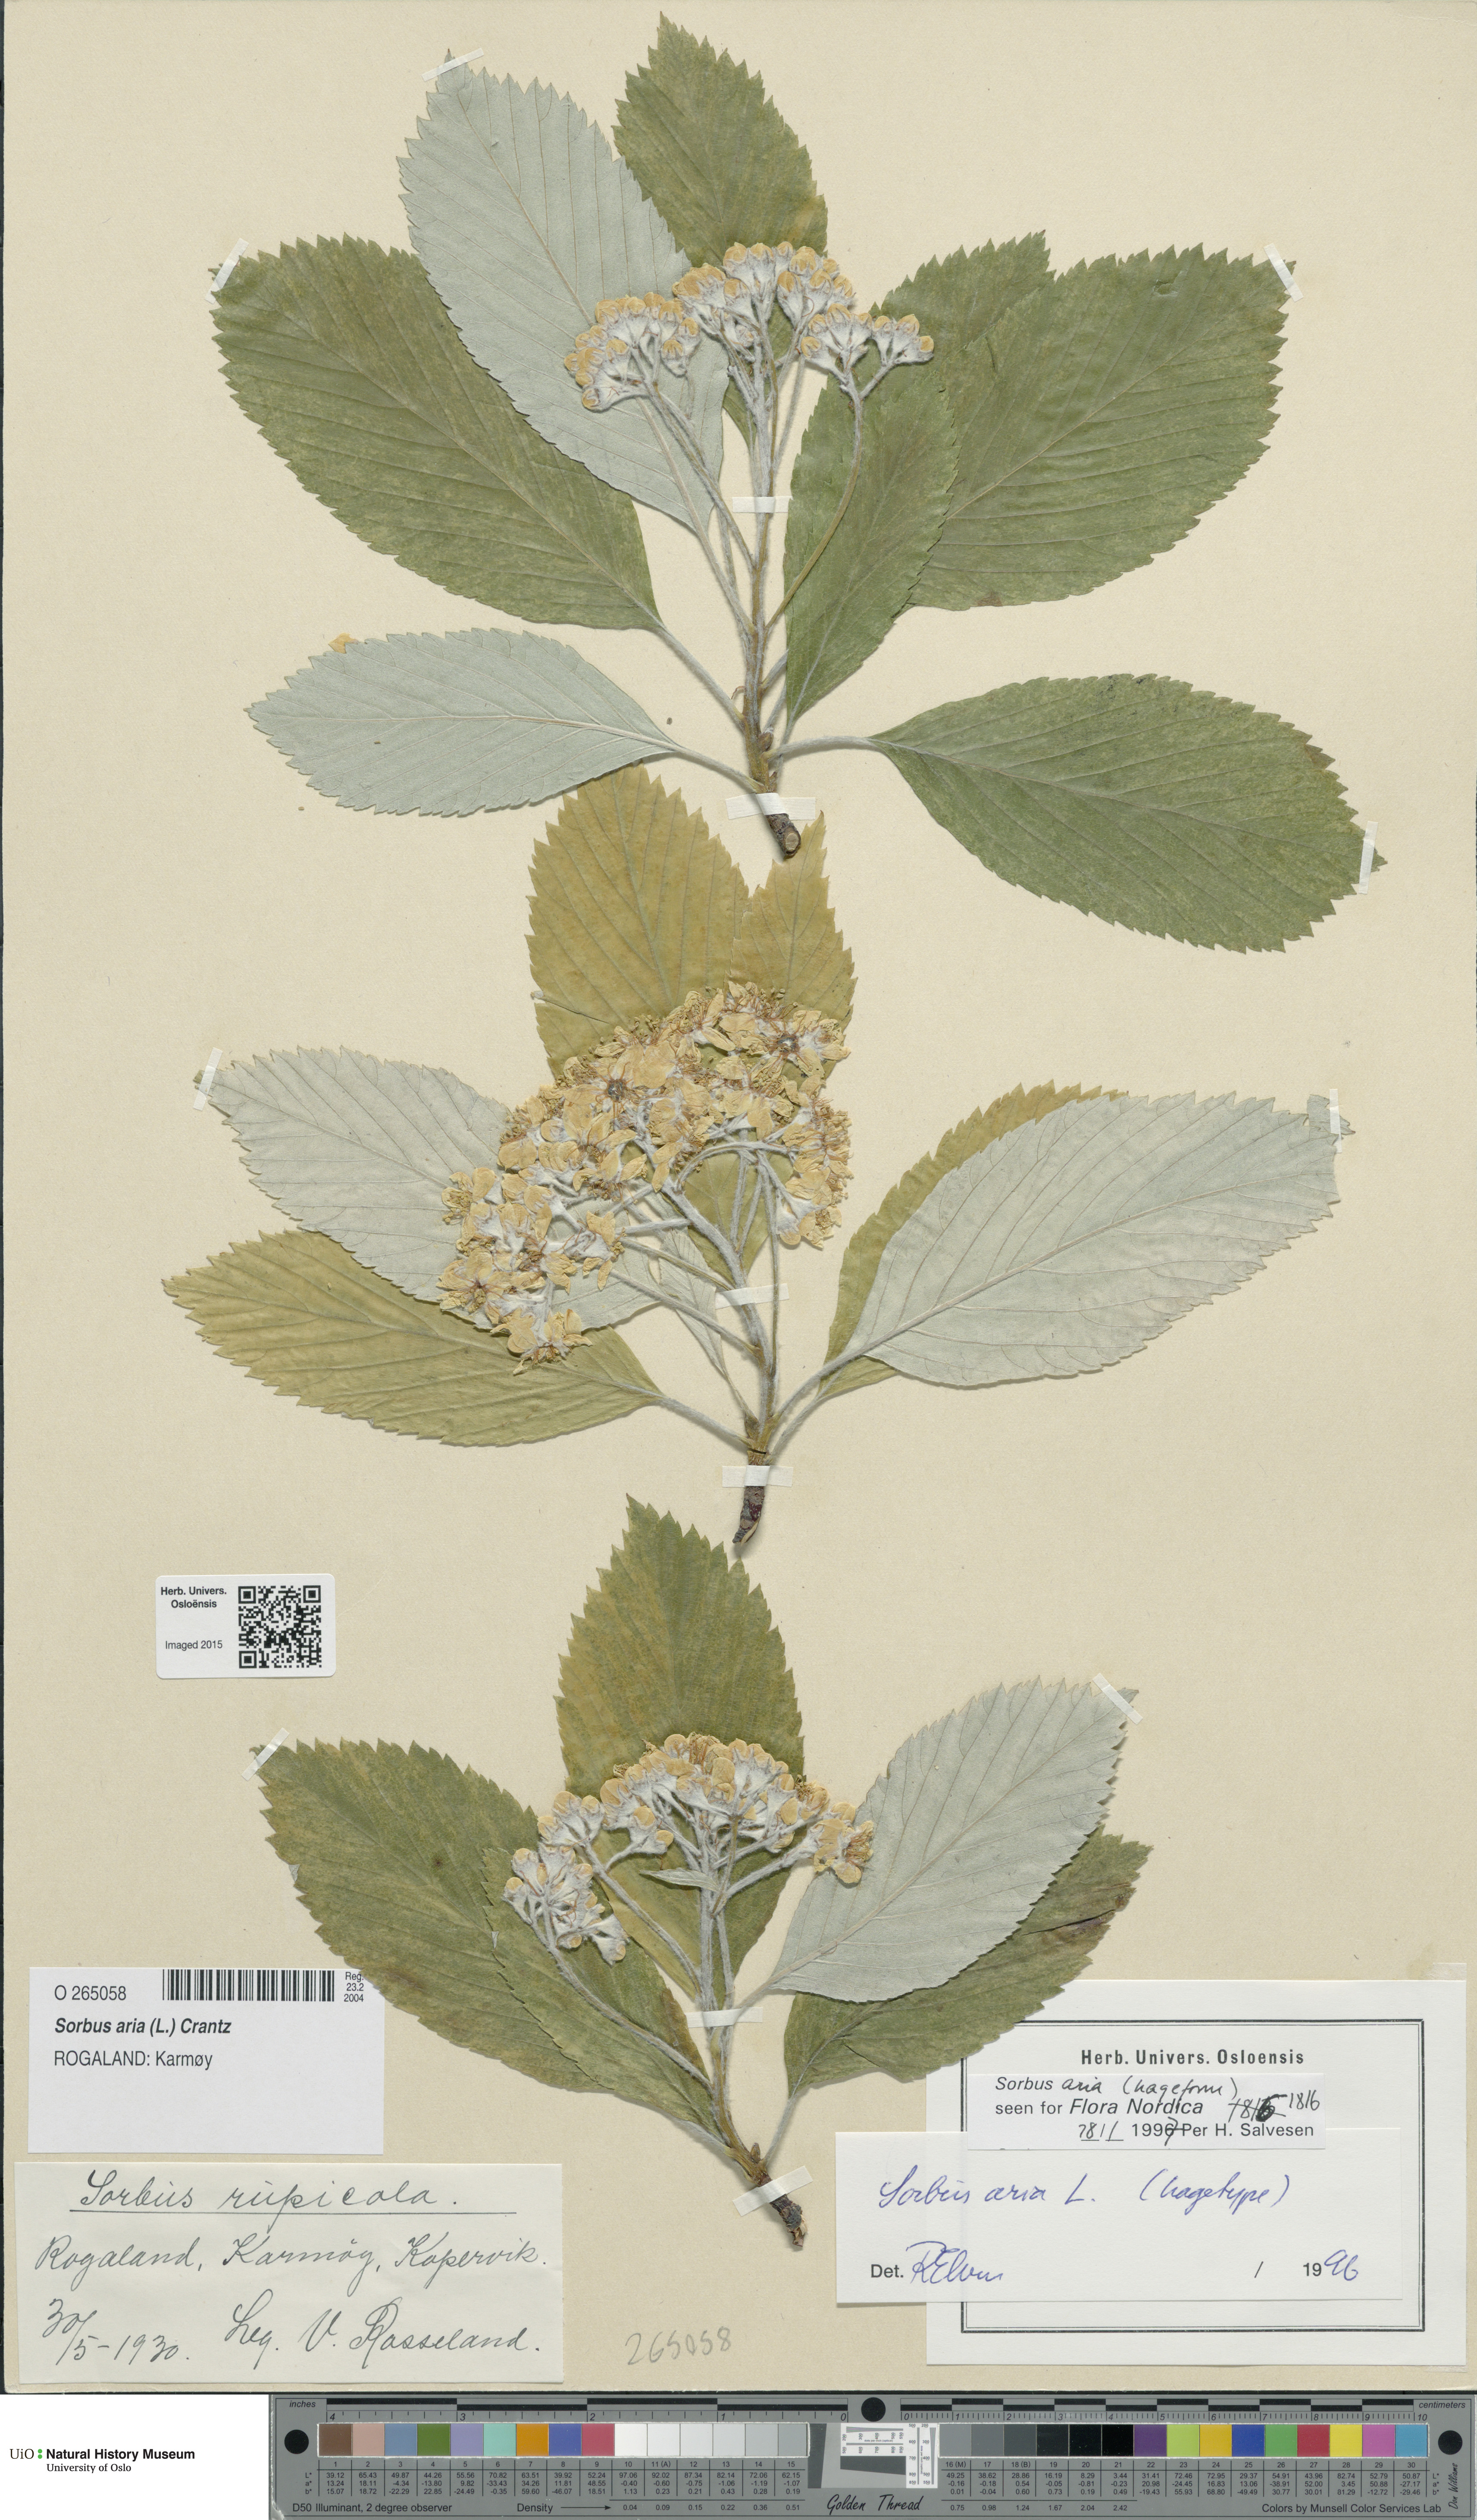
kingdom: Plantae
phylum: Tracheophyta
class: Magnoliopsida
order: Rosales
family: Rosaceae
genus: Aria
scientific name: Aria edulis
